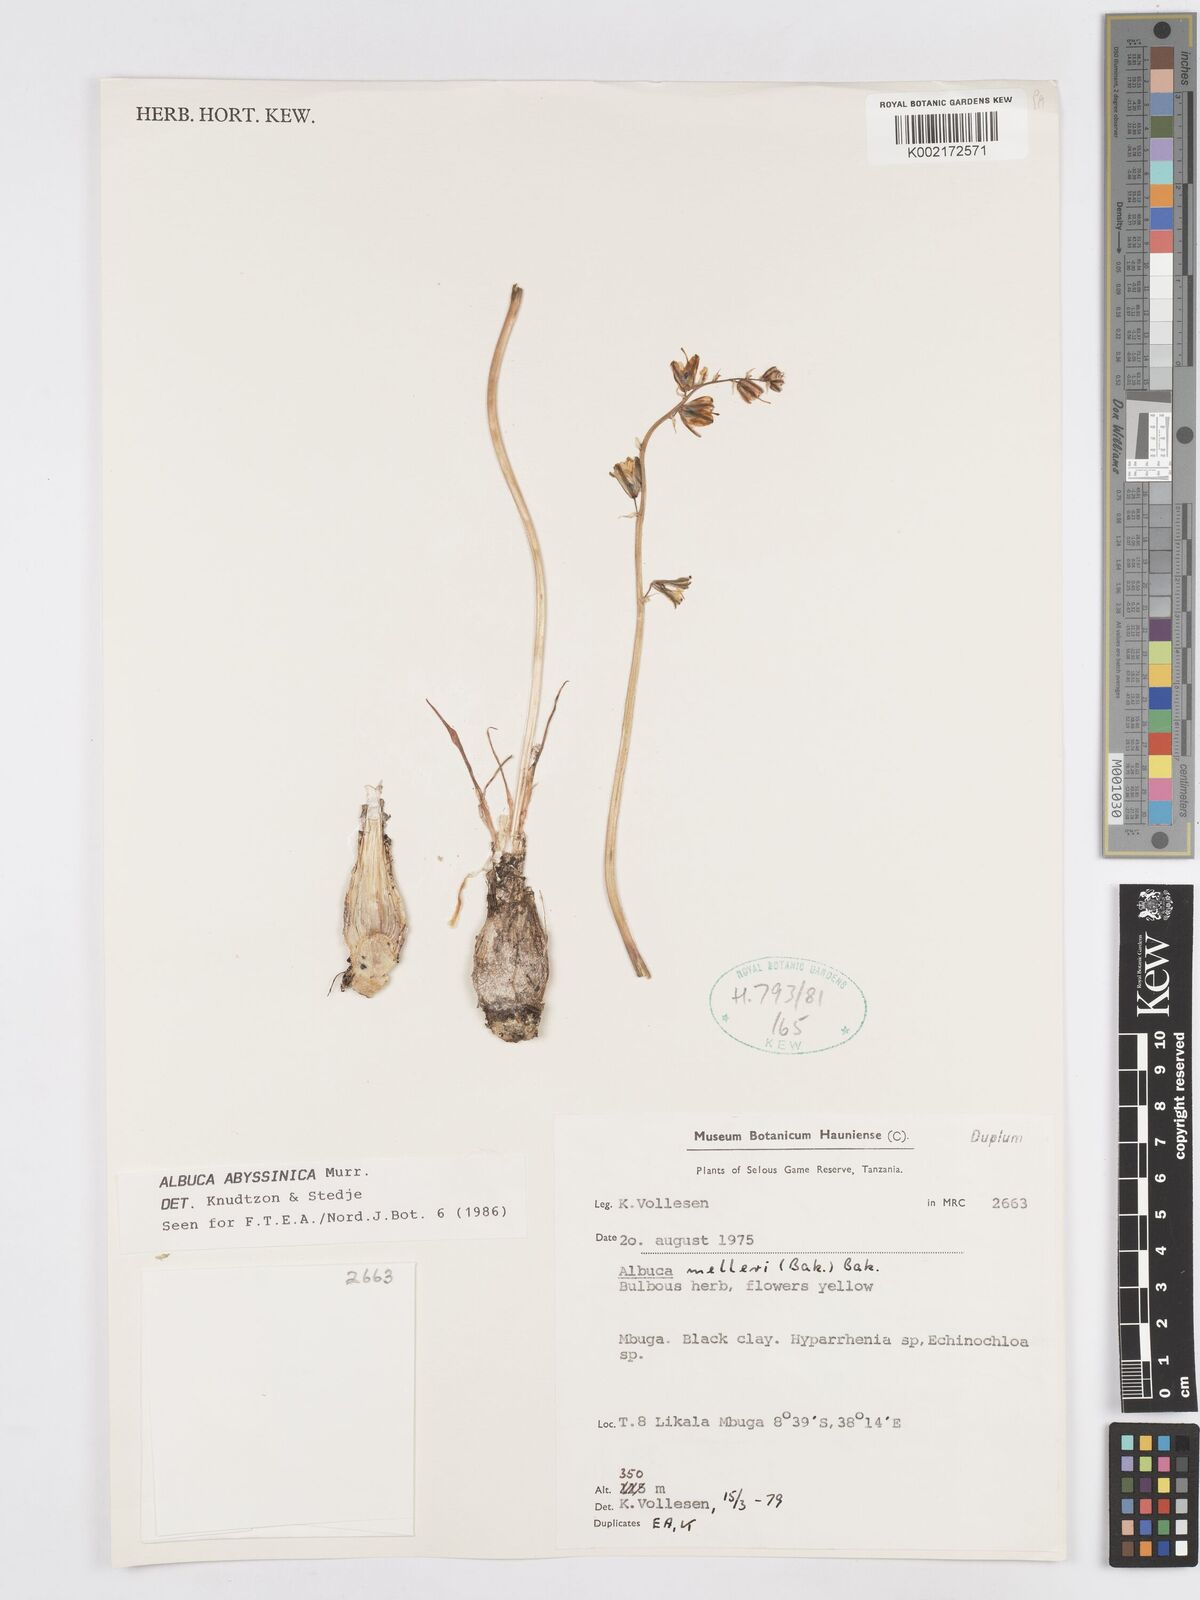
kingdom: Plantae
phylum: Tracheophyta
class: Liliopsida
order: Asparagales
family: Asparagaceae
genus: Albuca
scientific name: Albuca abyssinica
